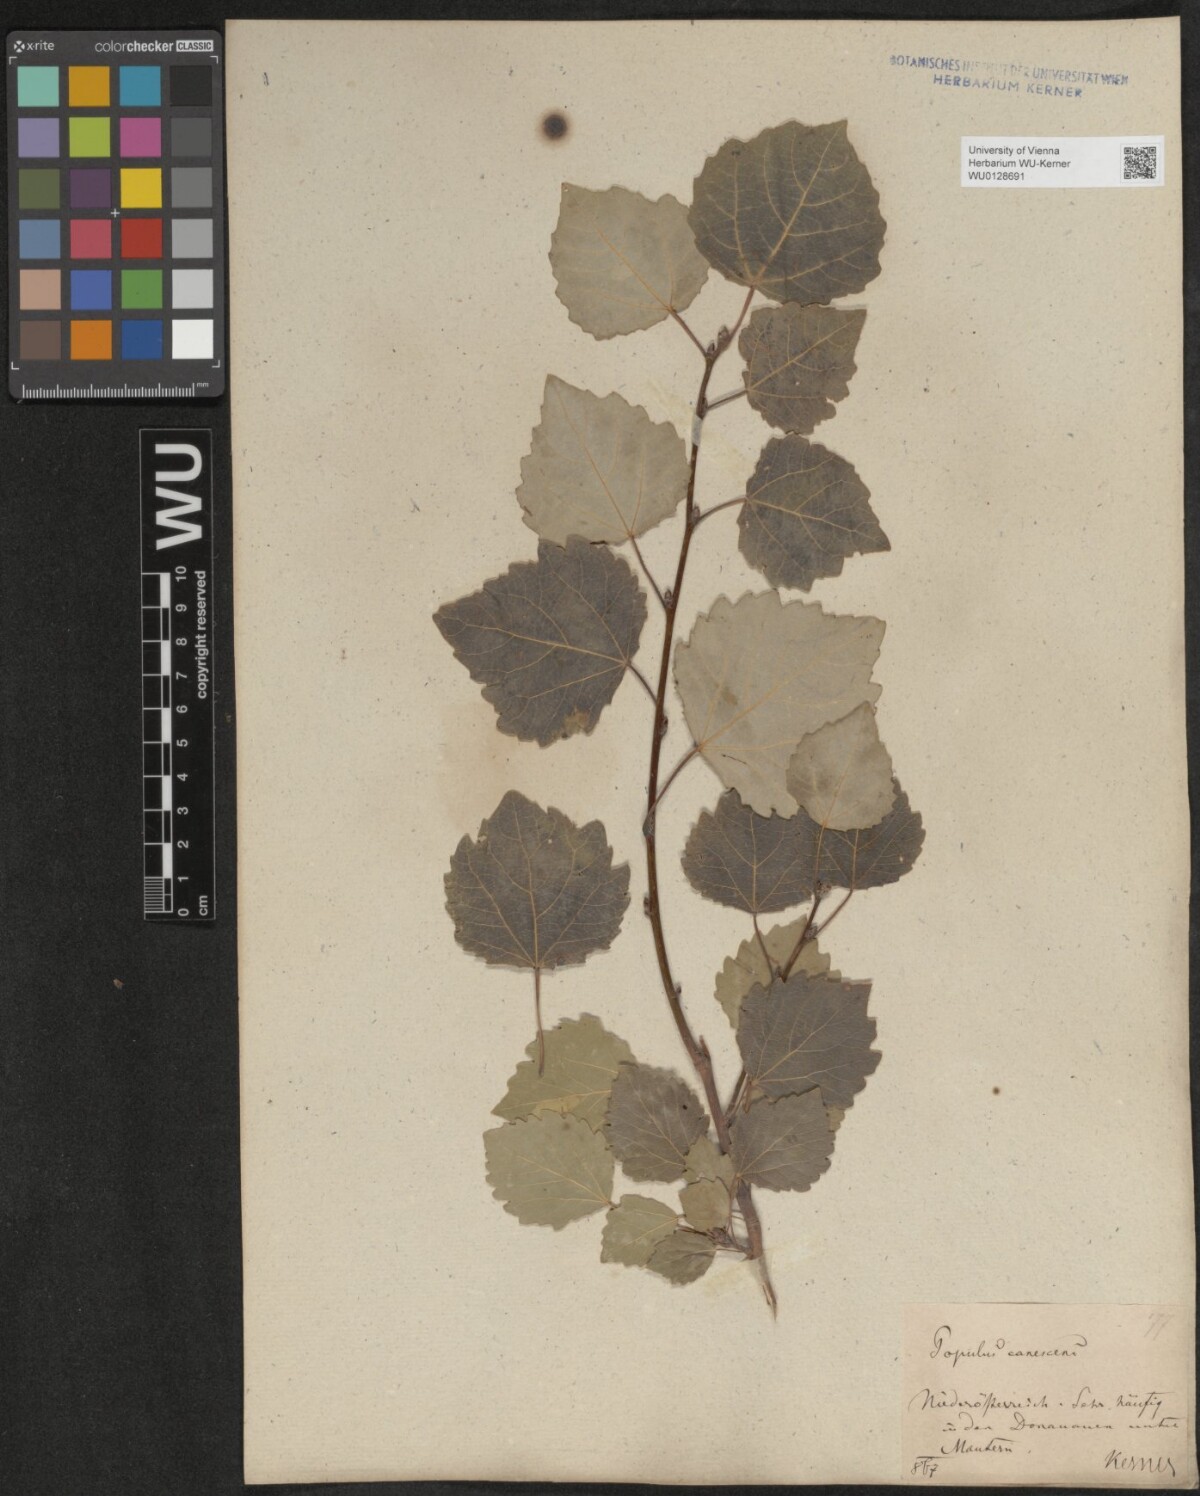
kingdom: Plantae
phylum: Tracheophyta
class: Magnoliopsida
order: Malpighiales
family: Salicaceae
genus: Populus
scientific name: Populus canescens
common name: Gray poplar
